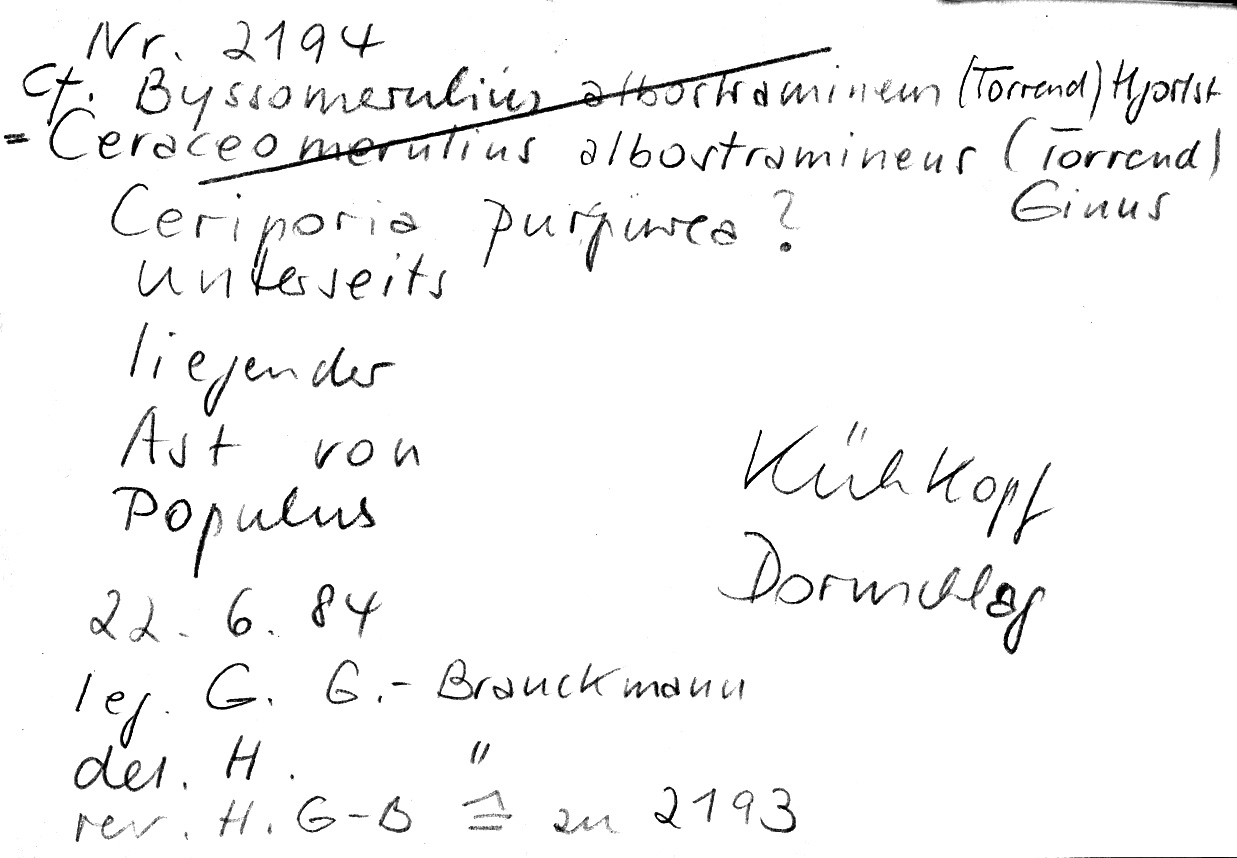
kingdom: Fungi
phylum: Basidiomycota
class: Agaricomycetes
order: Polyporales
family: Irpicaceae
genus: Ceriporia
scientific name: Ceriporia purpurea
